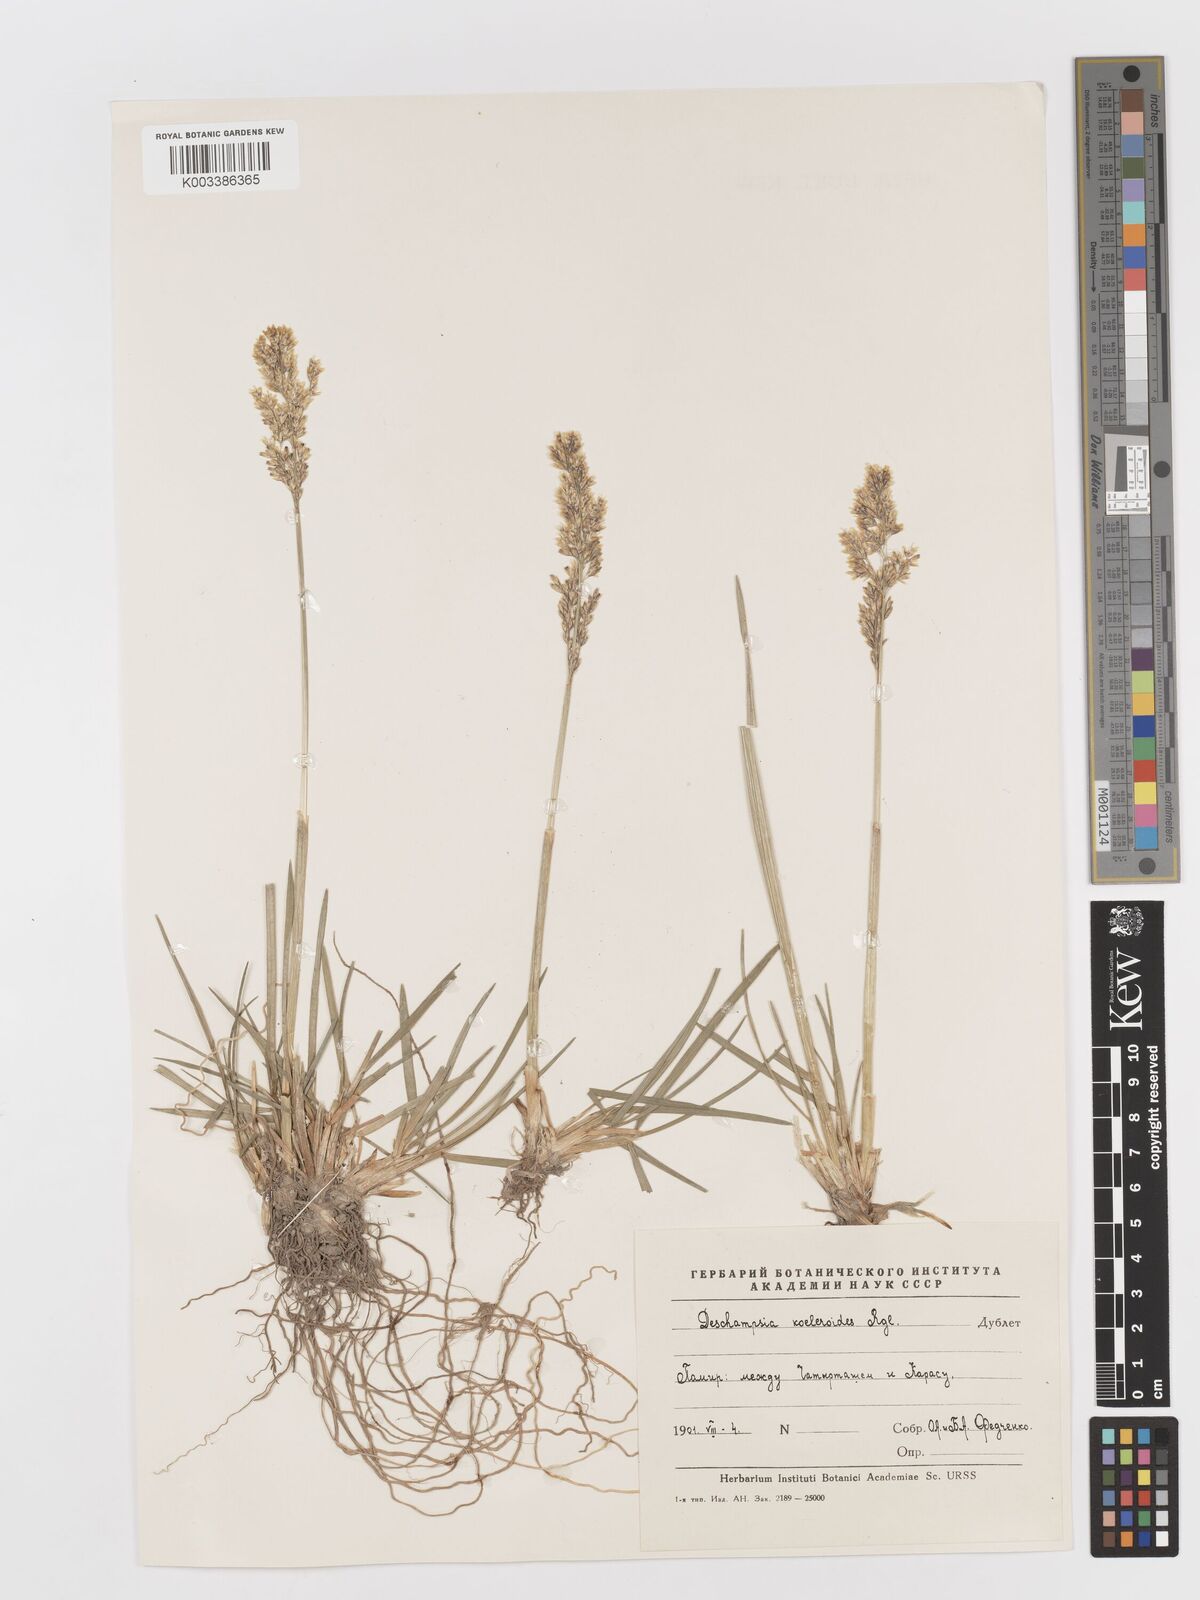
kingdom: Plantae
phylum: Tracheophyta
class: Liliopsida
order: Poales
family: Poaceae
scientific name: Poaceae
